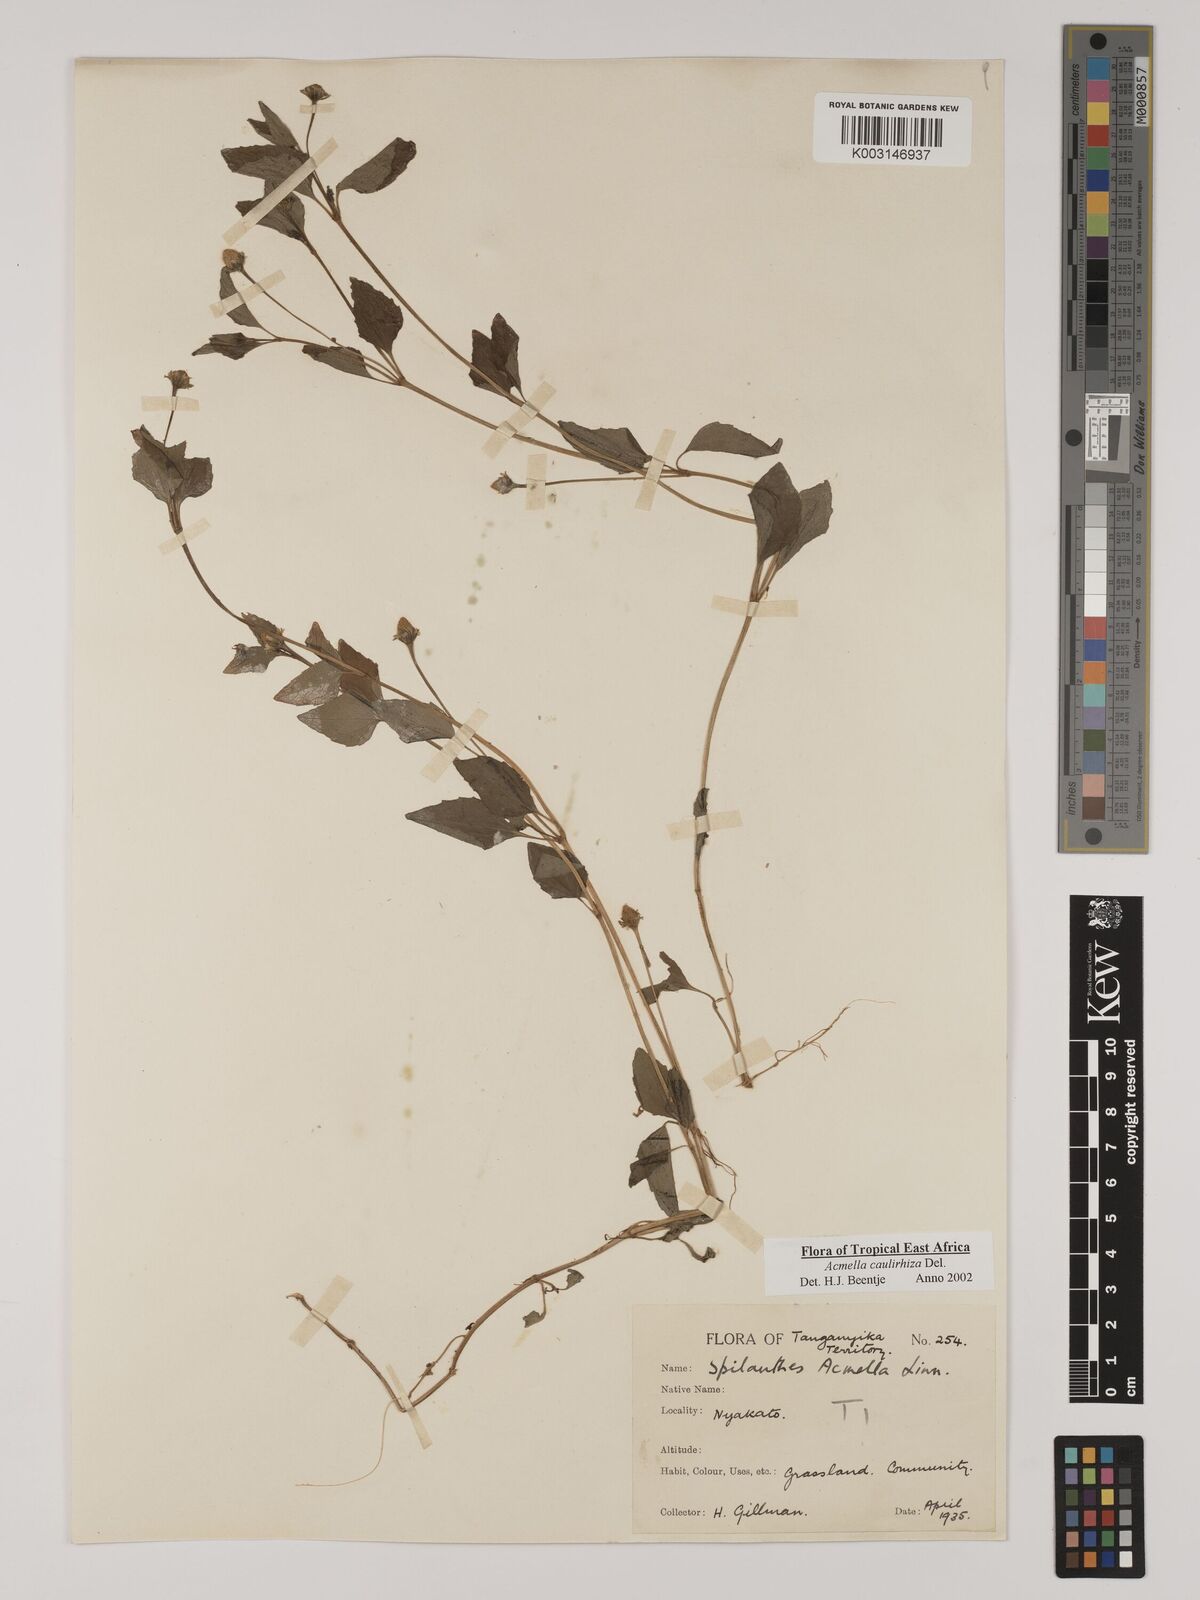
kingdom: Plantae
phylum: Tracheophyta
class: Magnoliopsida
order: Asterales
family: Asteraceae
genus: Acmella
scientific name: Acmella caulirhiza
